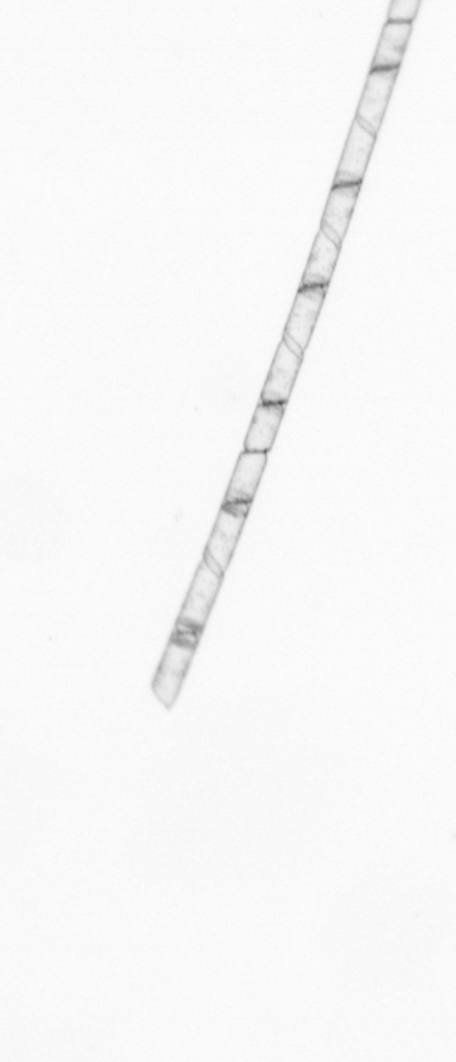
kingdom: Chromista
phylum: Ochrophyta
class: Bacillariophyceae
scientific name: Bacillariophyceae
